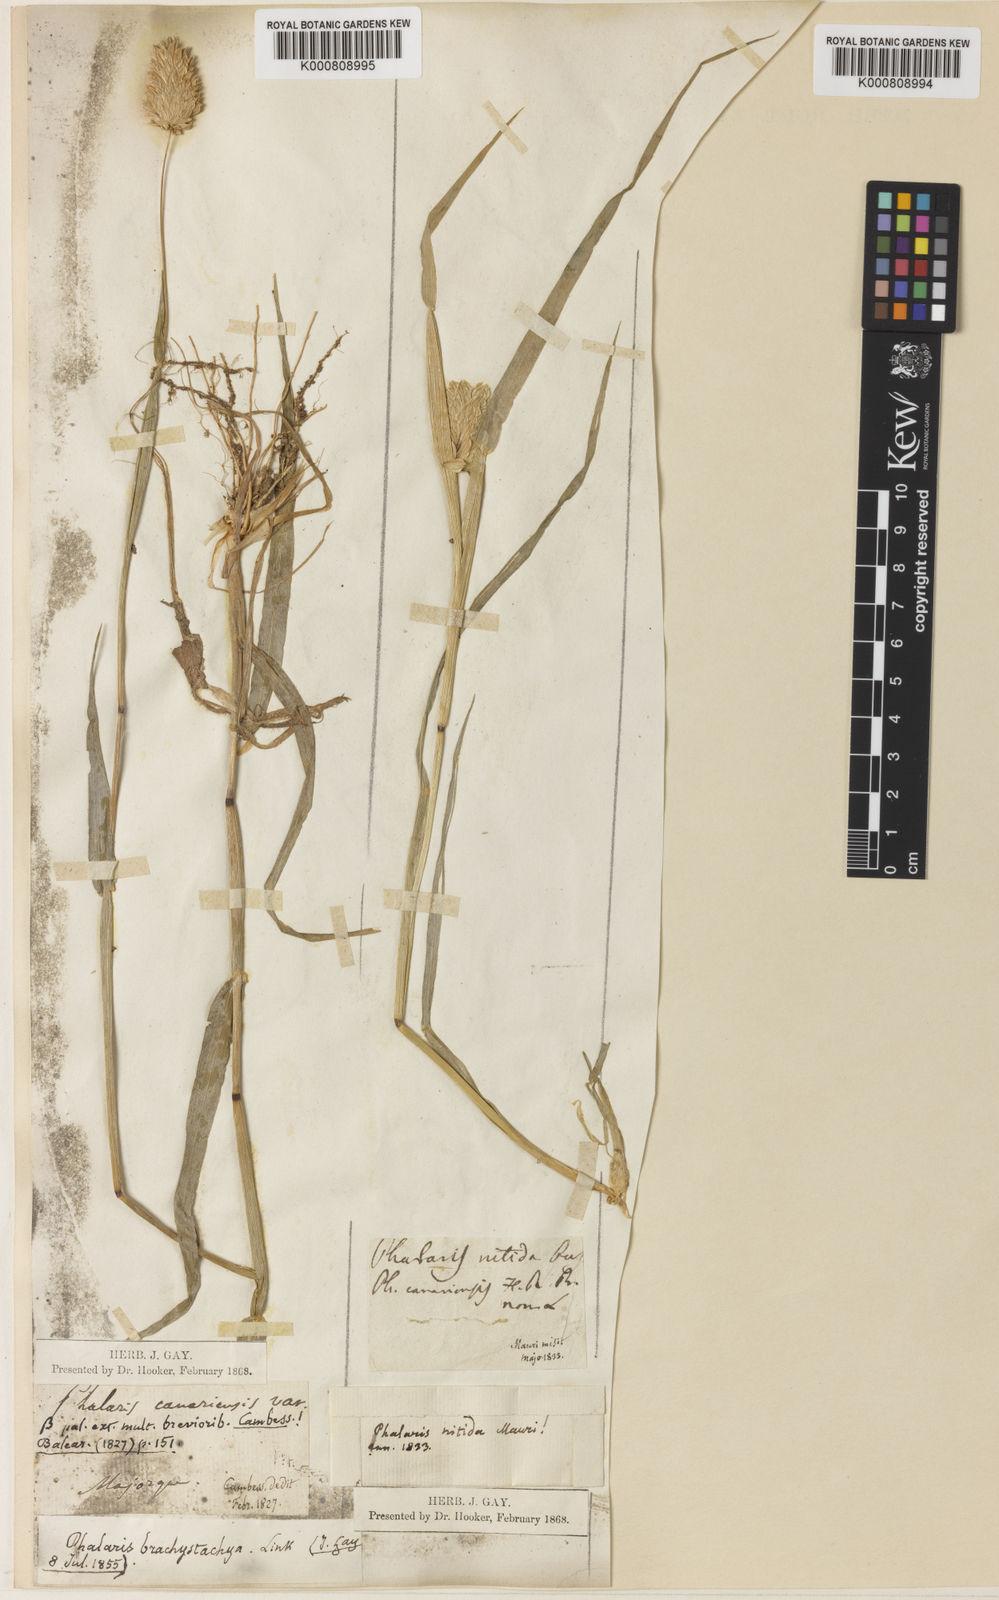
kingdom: Plantae
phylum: Tracheophyta
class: Liliopsida
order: Poales
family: Poaceae
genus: Phalaris
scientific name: Phalaris brachystachys
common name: Confused canary-grass
